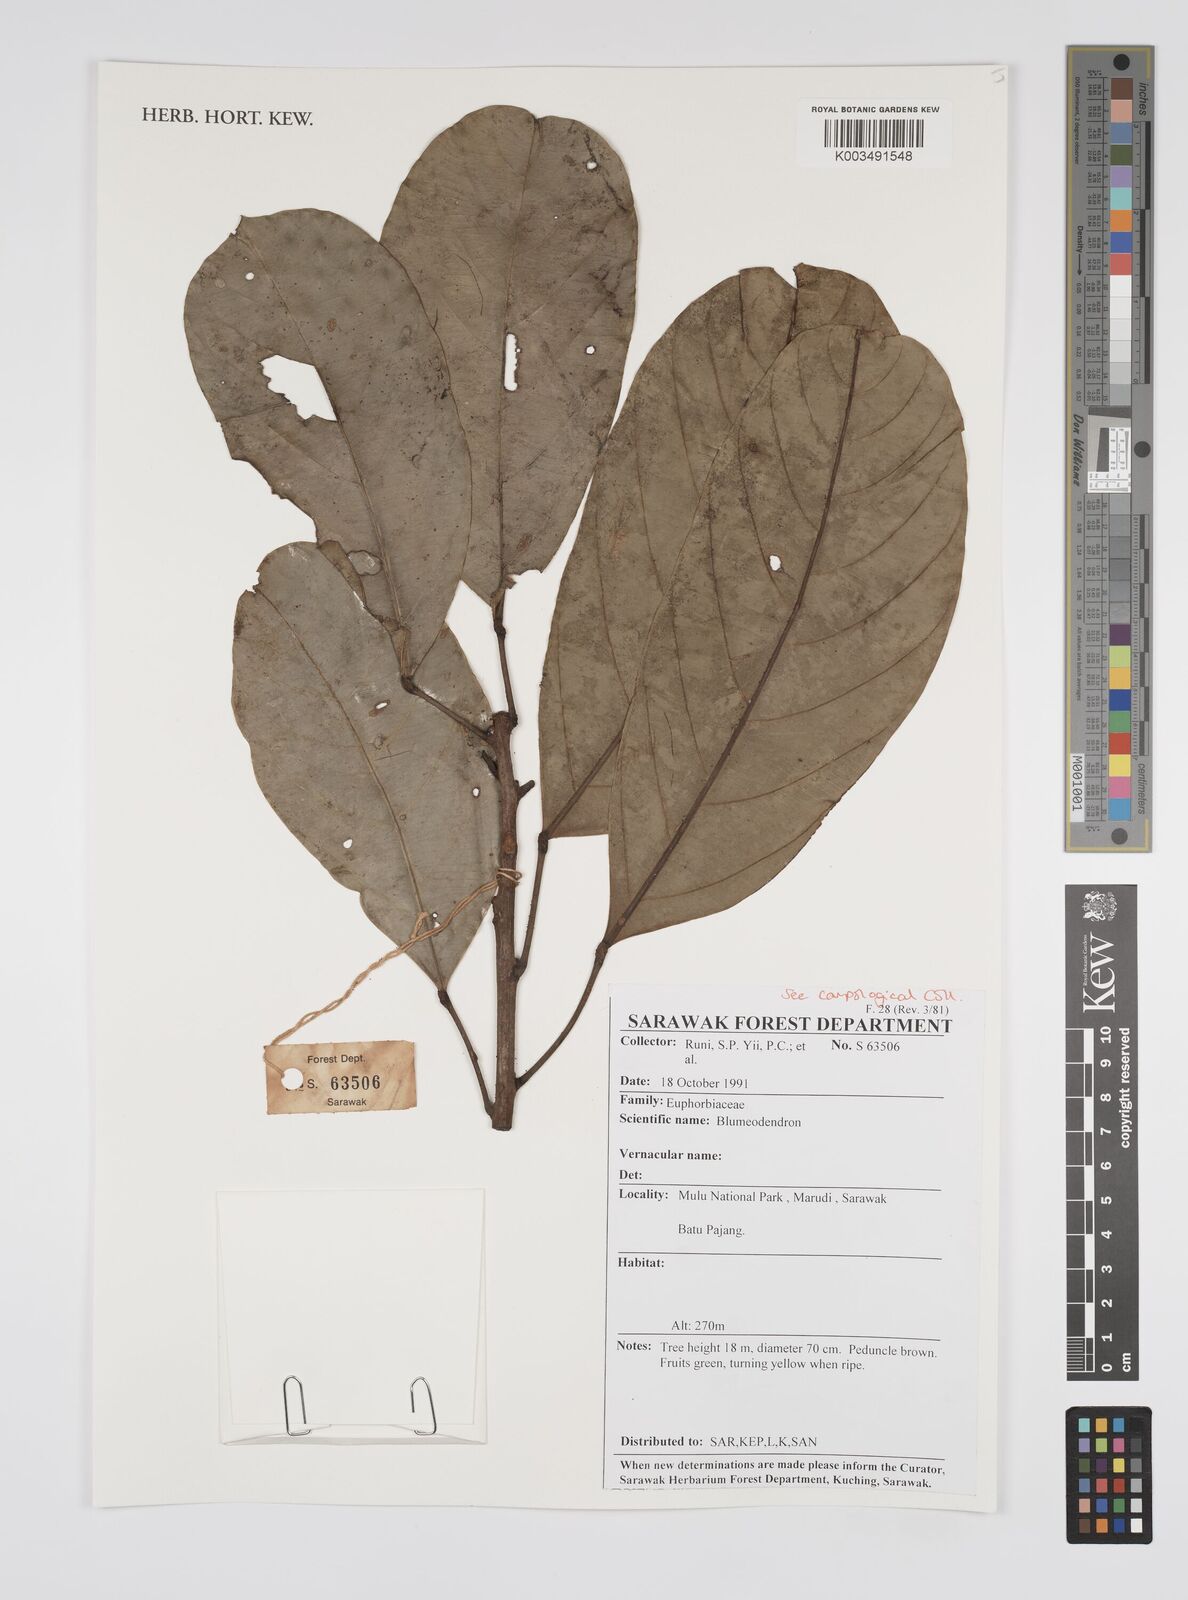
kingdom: Plantae
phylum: Tracheophyta
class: Magnoliopsida
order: Malpighiales
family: Euphorbiaceae
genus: Blumeodendron
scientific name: Blumeodendron
